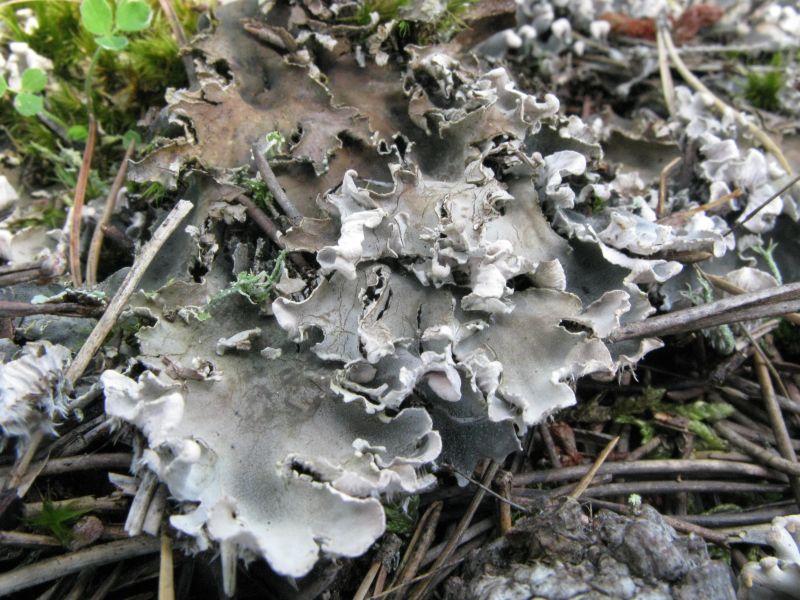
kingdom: Fungi
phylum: Ascomycota
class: Lecanoromycetes
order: Peltigerales
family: Peltigeraceae
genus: Peltigera
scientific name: Peltigera
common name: skjoldlav
